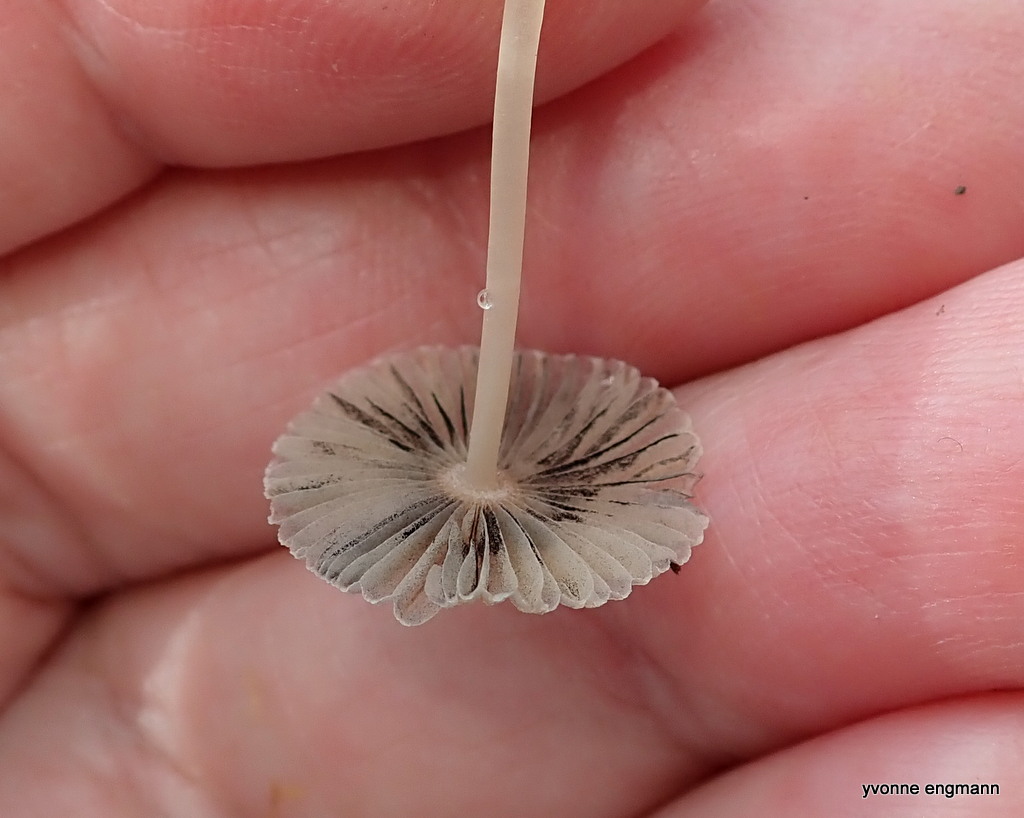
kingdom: Fungi
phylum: Basidiomycota
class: Agaricomycetes
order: Agaricales
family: Psathyrellaceae
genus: Parasola
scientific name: Parasola
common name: hjulhat
